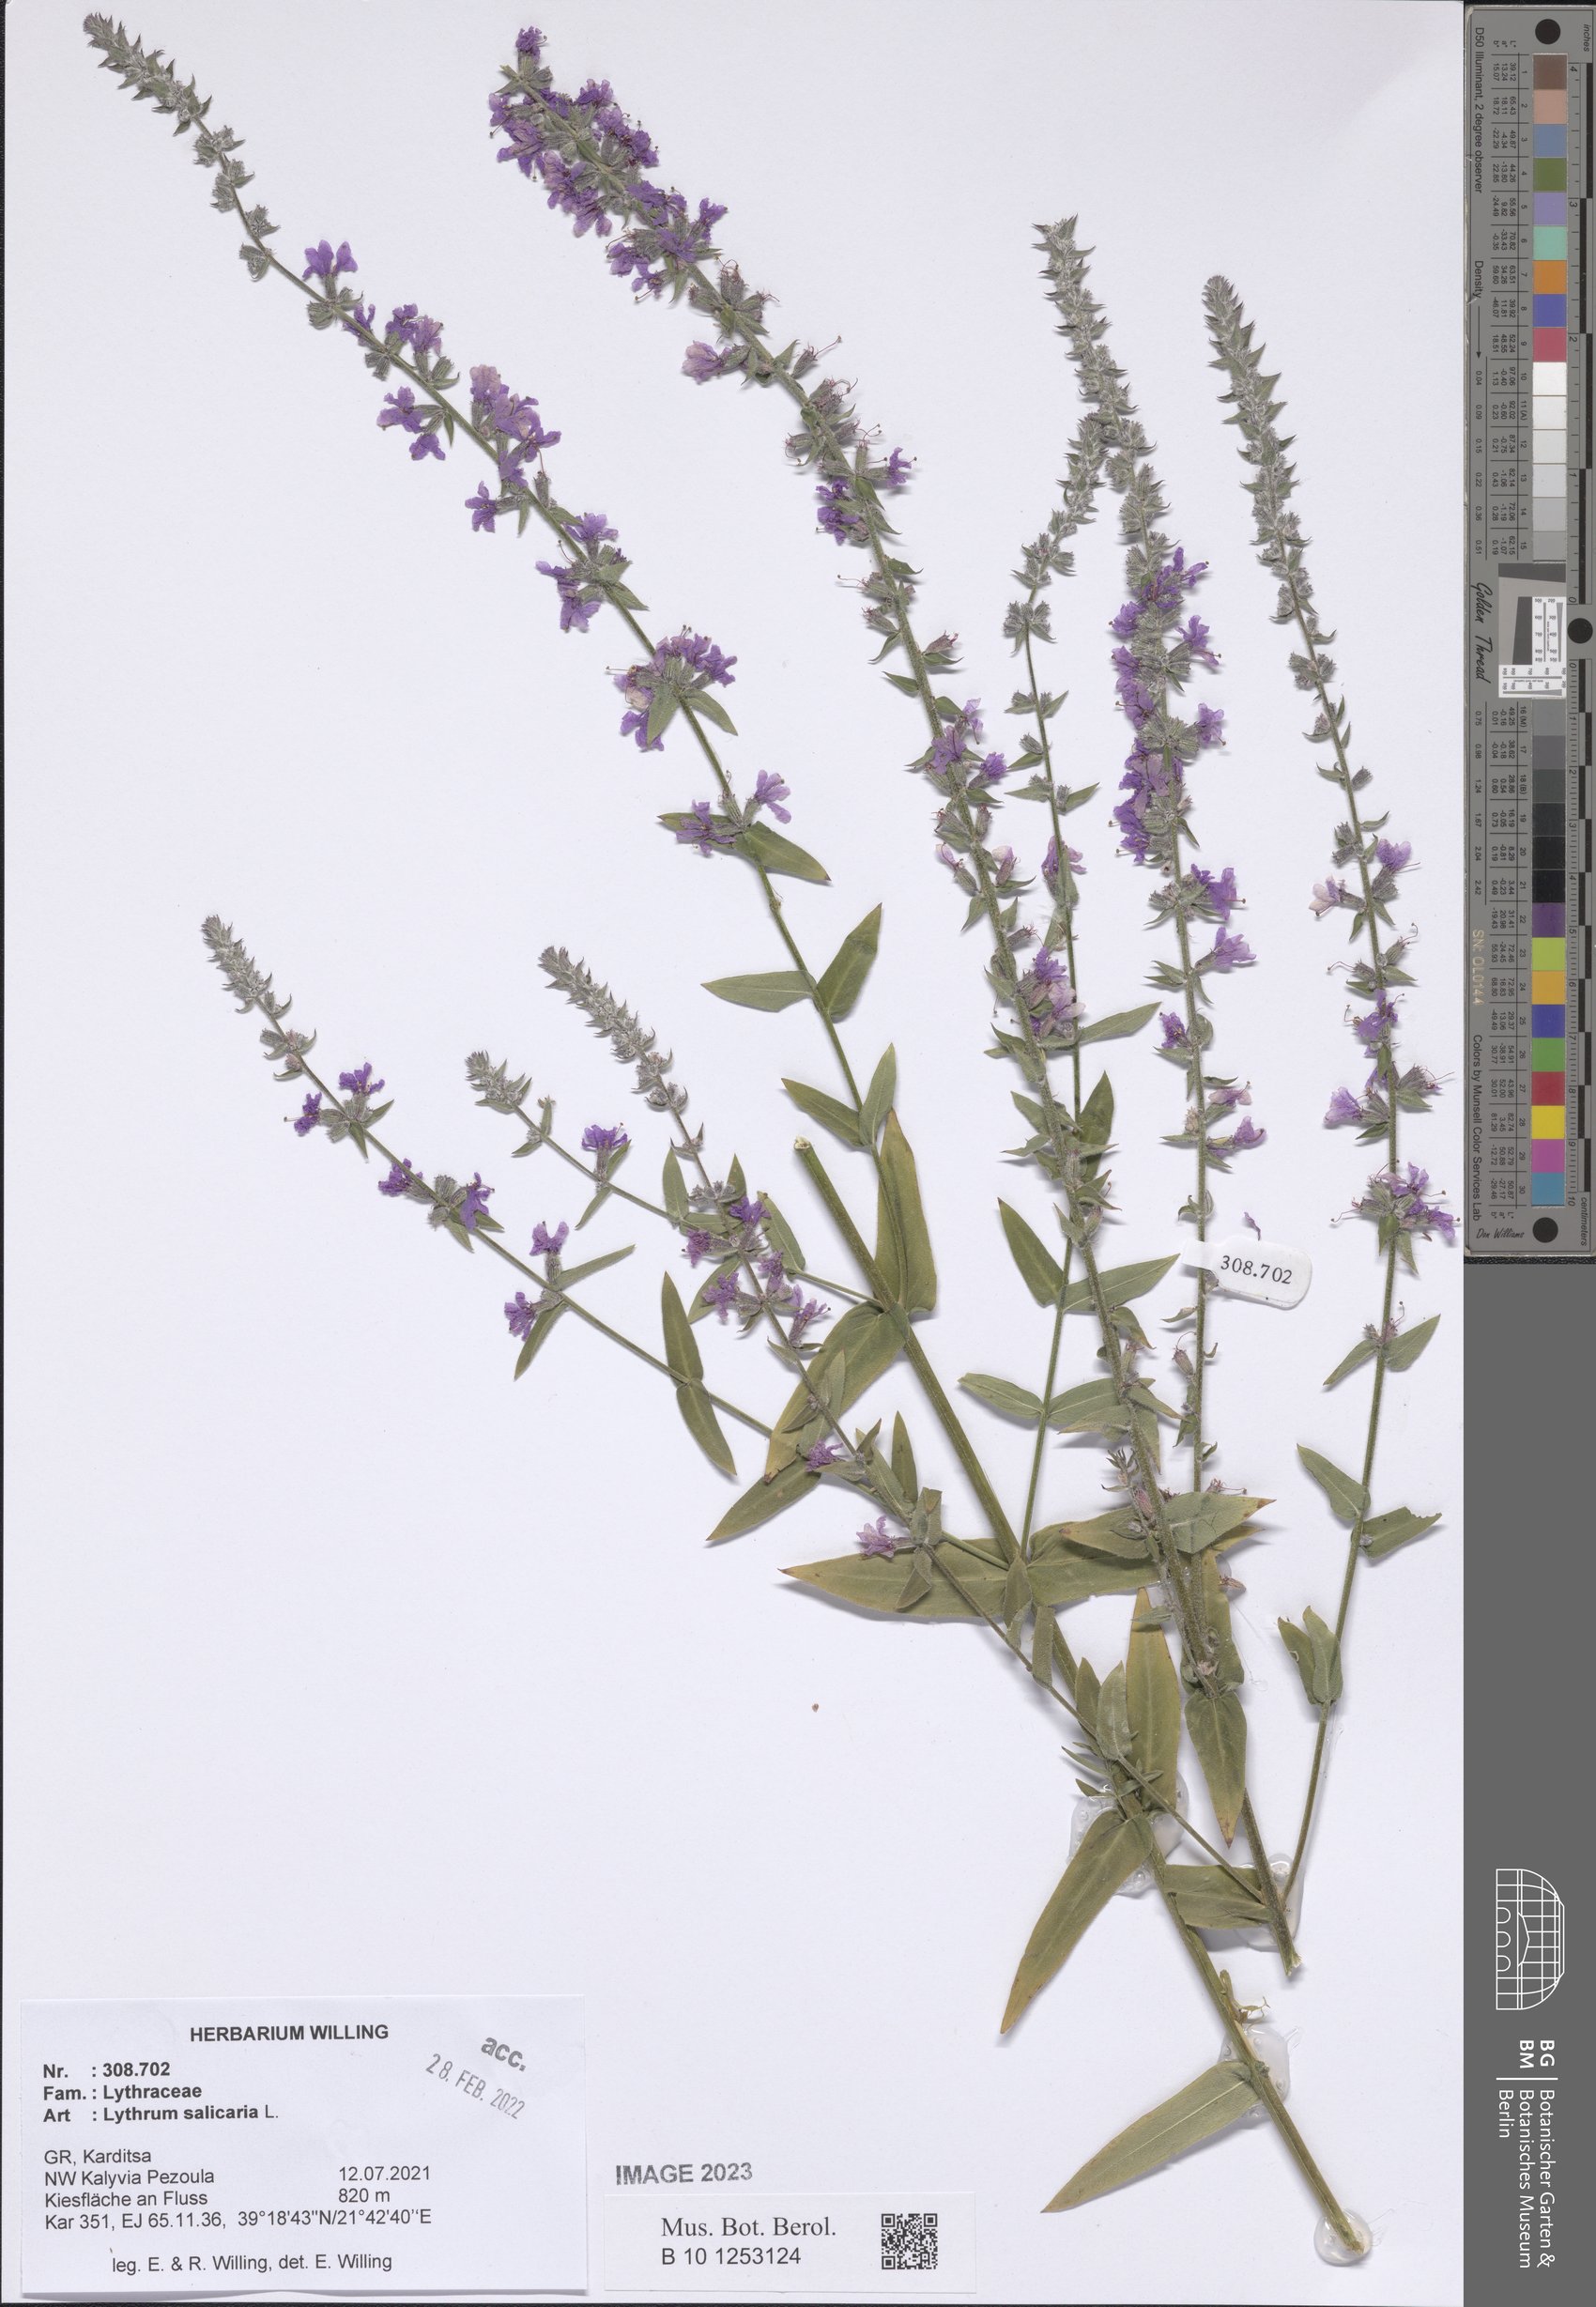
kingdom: Plantae
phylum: Tracheophyta
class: Magnoliopsida
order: Myrtales
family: Lythraceae
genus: Lythrum
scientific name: Lythrum salicaria
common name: Purple loosestrife
